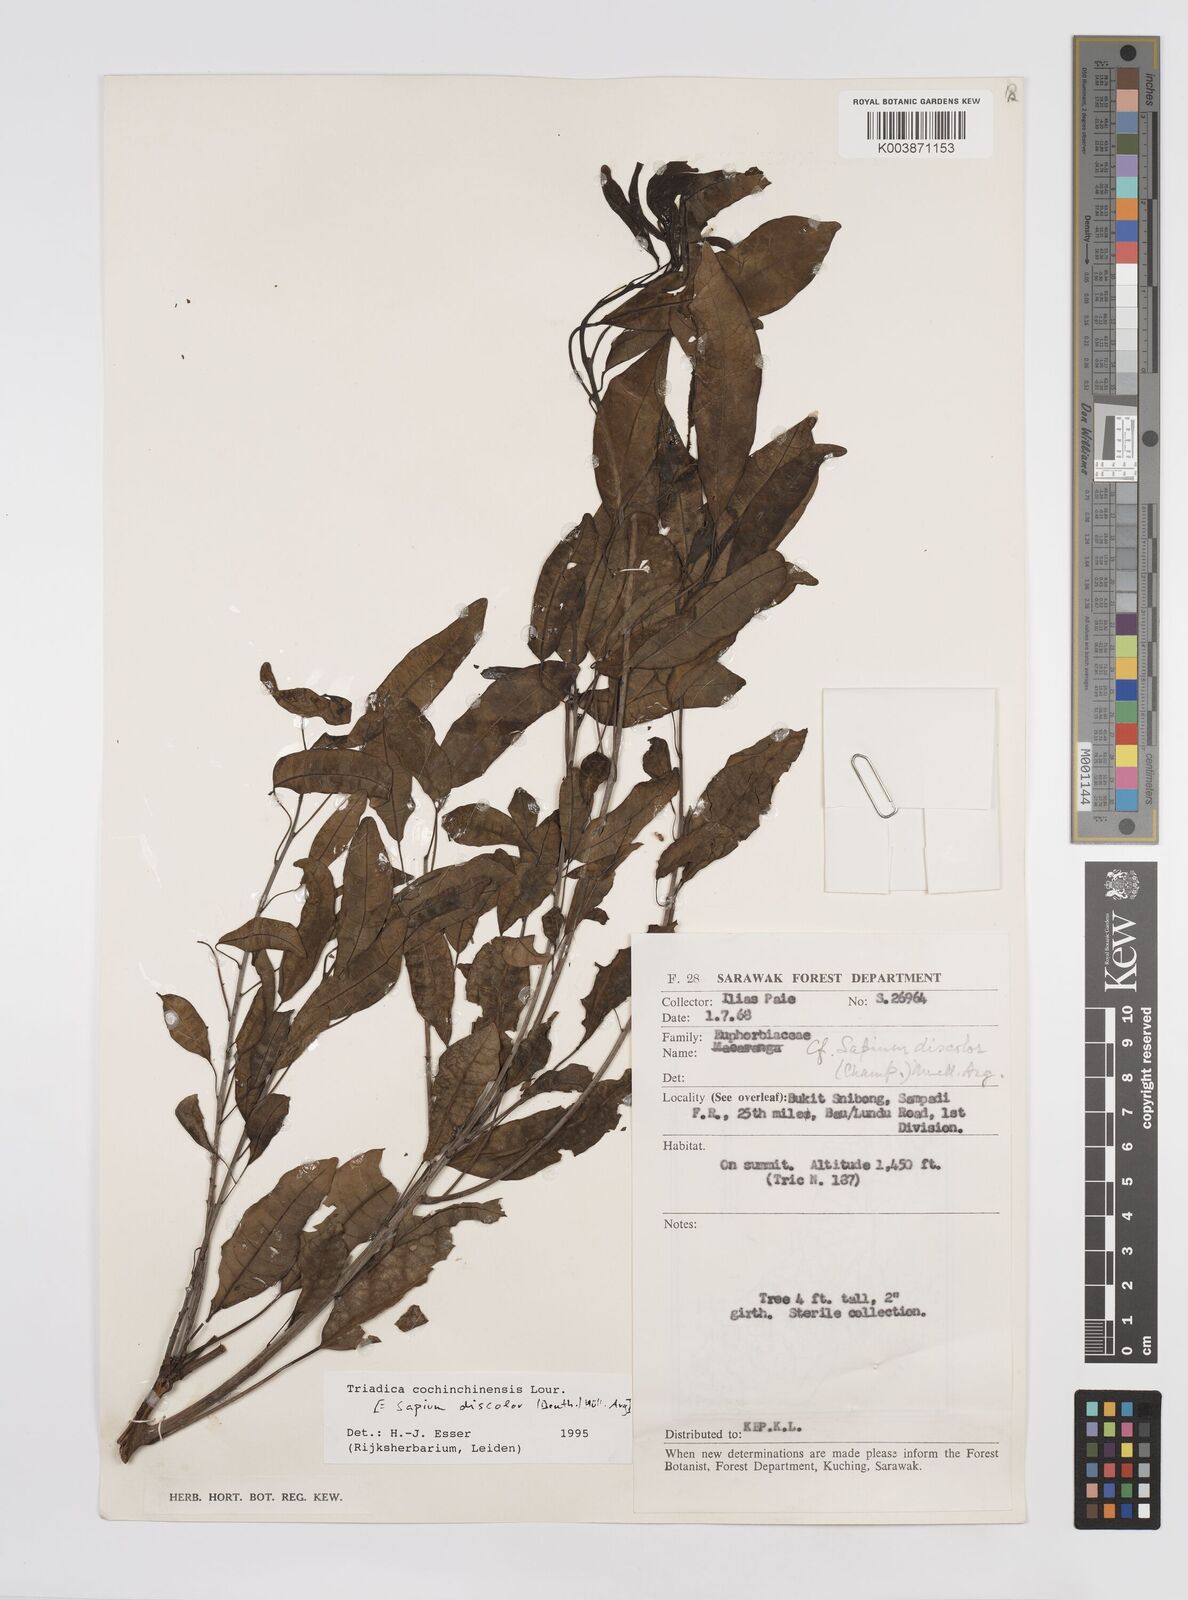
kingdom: Plantae
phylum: Tracheophyta
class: Magnoliopsida
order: Malpighiales
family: Euphorbiaceae
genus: Triadica
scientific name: Triadica cochinchinensis
